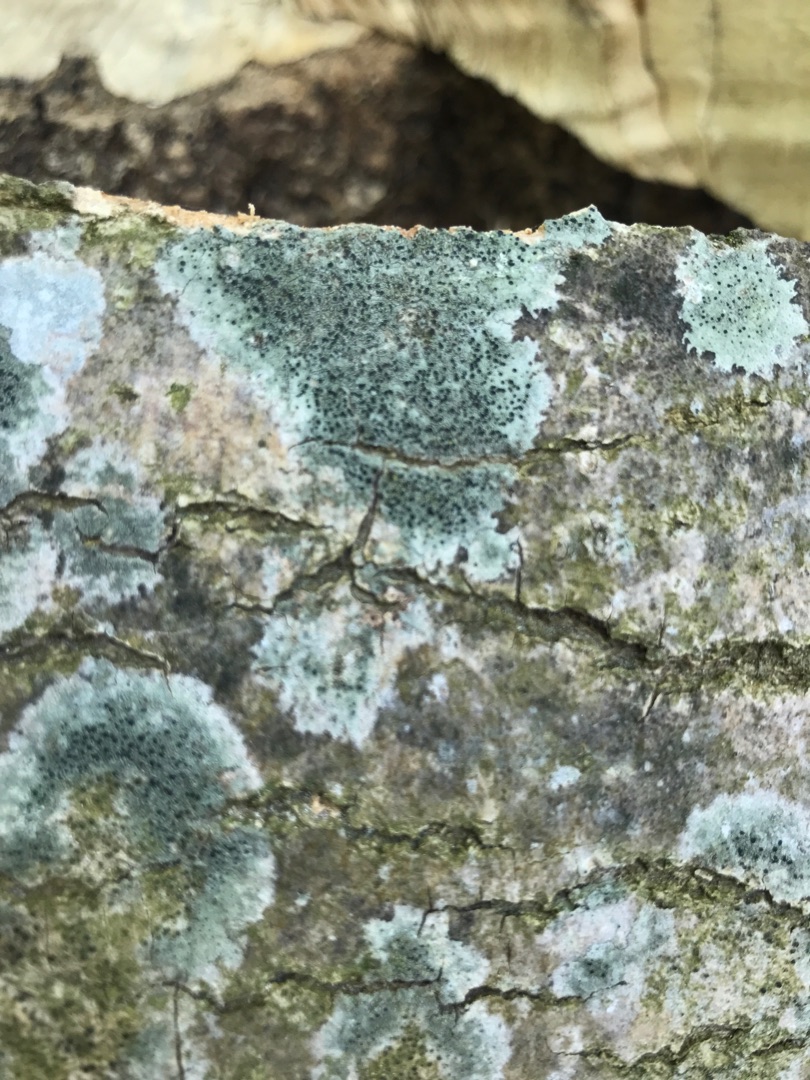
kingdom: Fungi
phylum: Ascomycota
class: Lecanoromycetes
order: Lecanorales
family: Lecanoraceae
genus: Lecidella
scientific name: Lecidella elaeochroma
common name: Grågrøn skivelav
